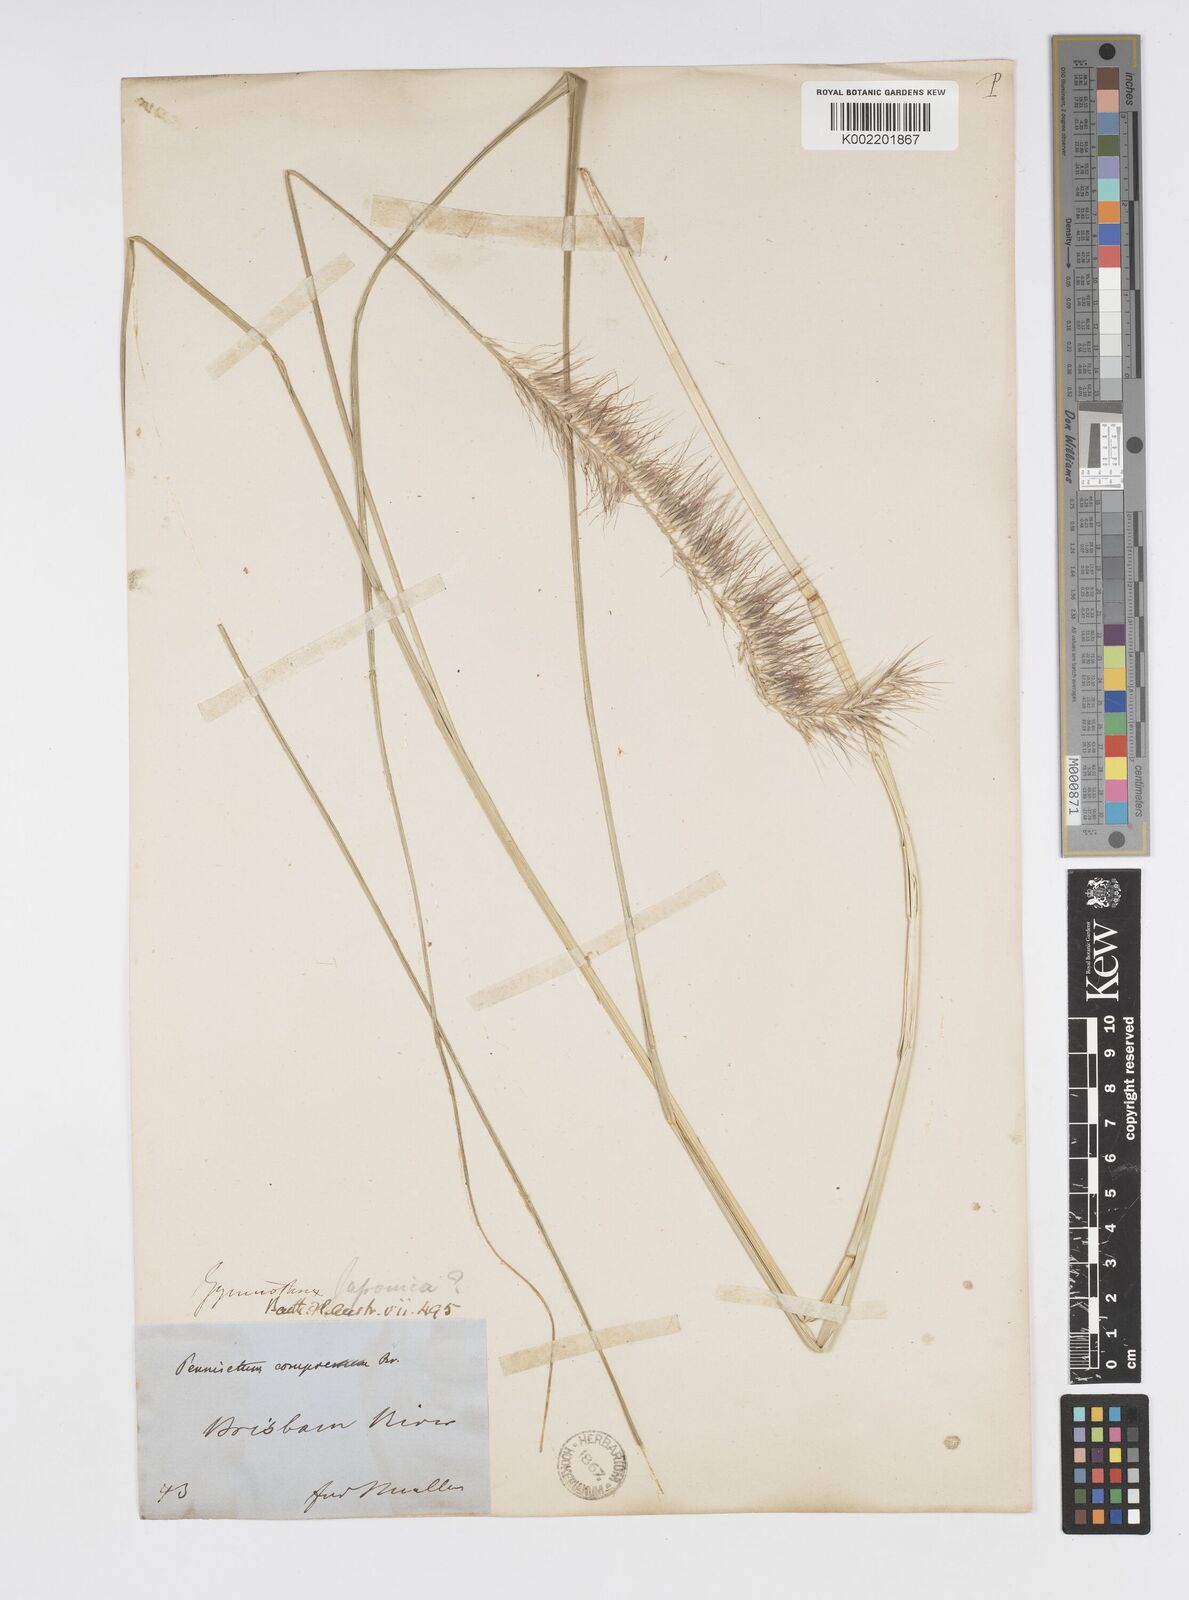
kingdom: Plantae
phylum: Tracheophyta
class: Liliopsida
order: Poales
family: Poaceae
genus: Cenchrus
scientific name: Cenchrus alopecuroides
